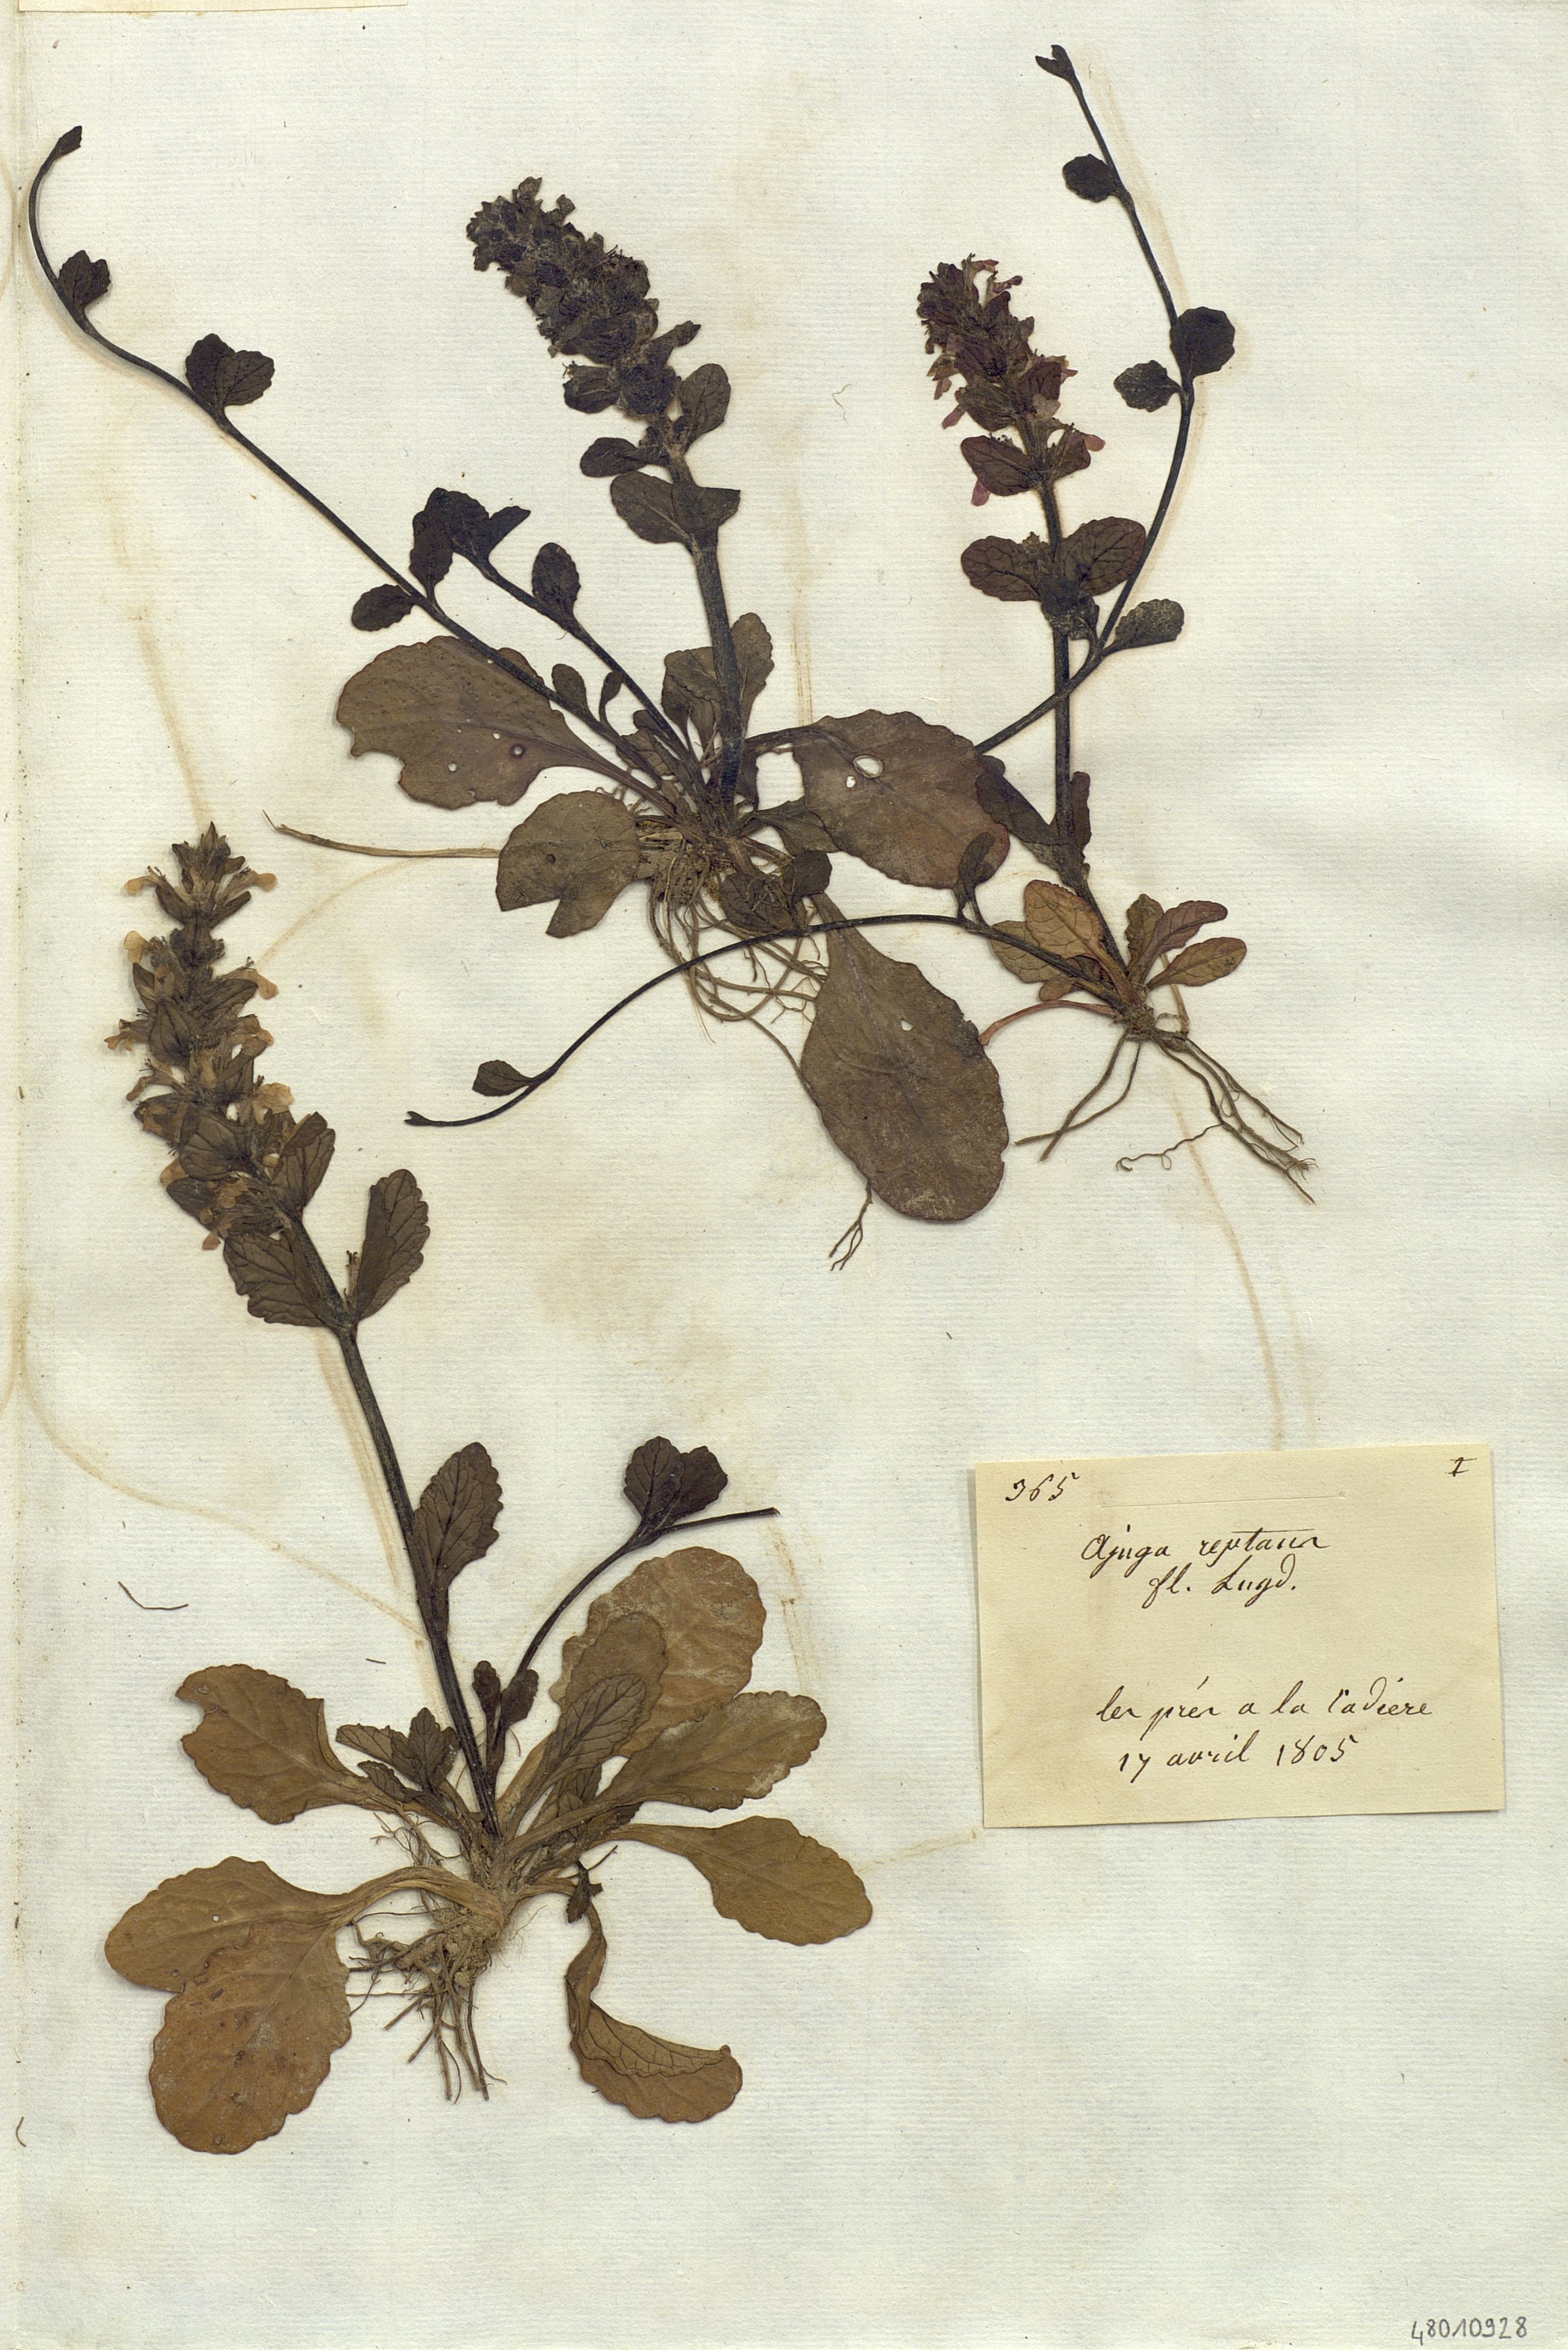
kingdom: Plantae
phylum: Tracheophyta
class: Magnoliopsida
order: Lamiales
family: Lamiaceae
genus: Ajuga
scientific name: Ajuga reptans
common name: Bugle
